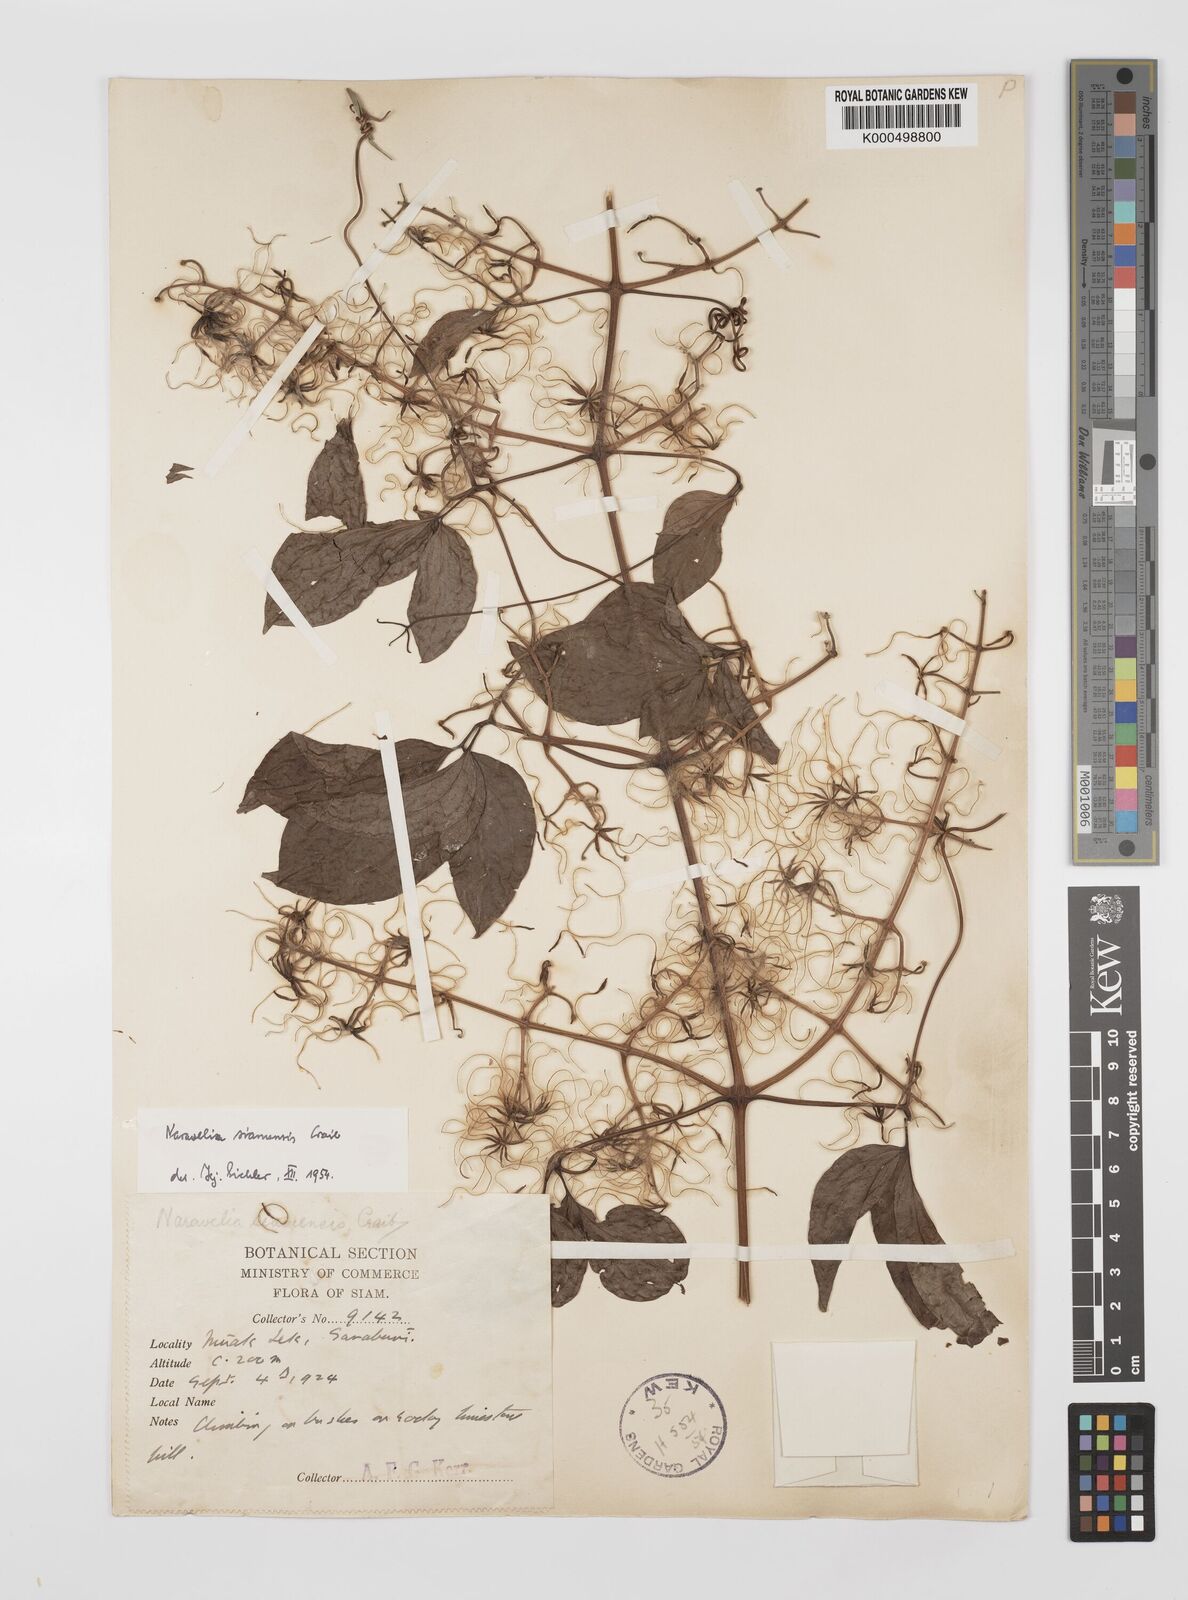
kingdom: Plantae
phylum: Tracheophyta
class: Magnoliopsida
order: Ranunculales
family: Ranunculaceae
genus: Clematis
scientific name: Clematis aureolata
